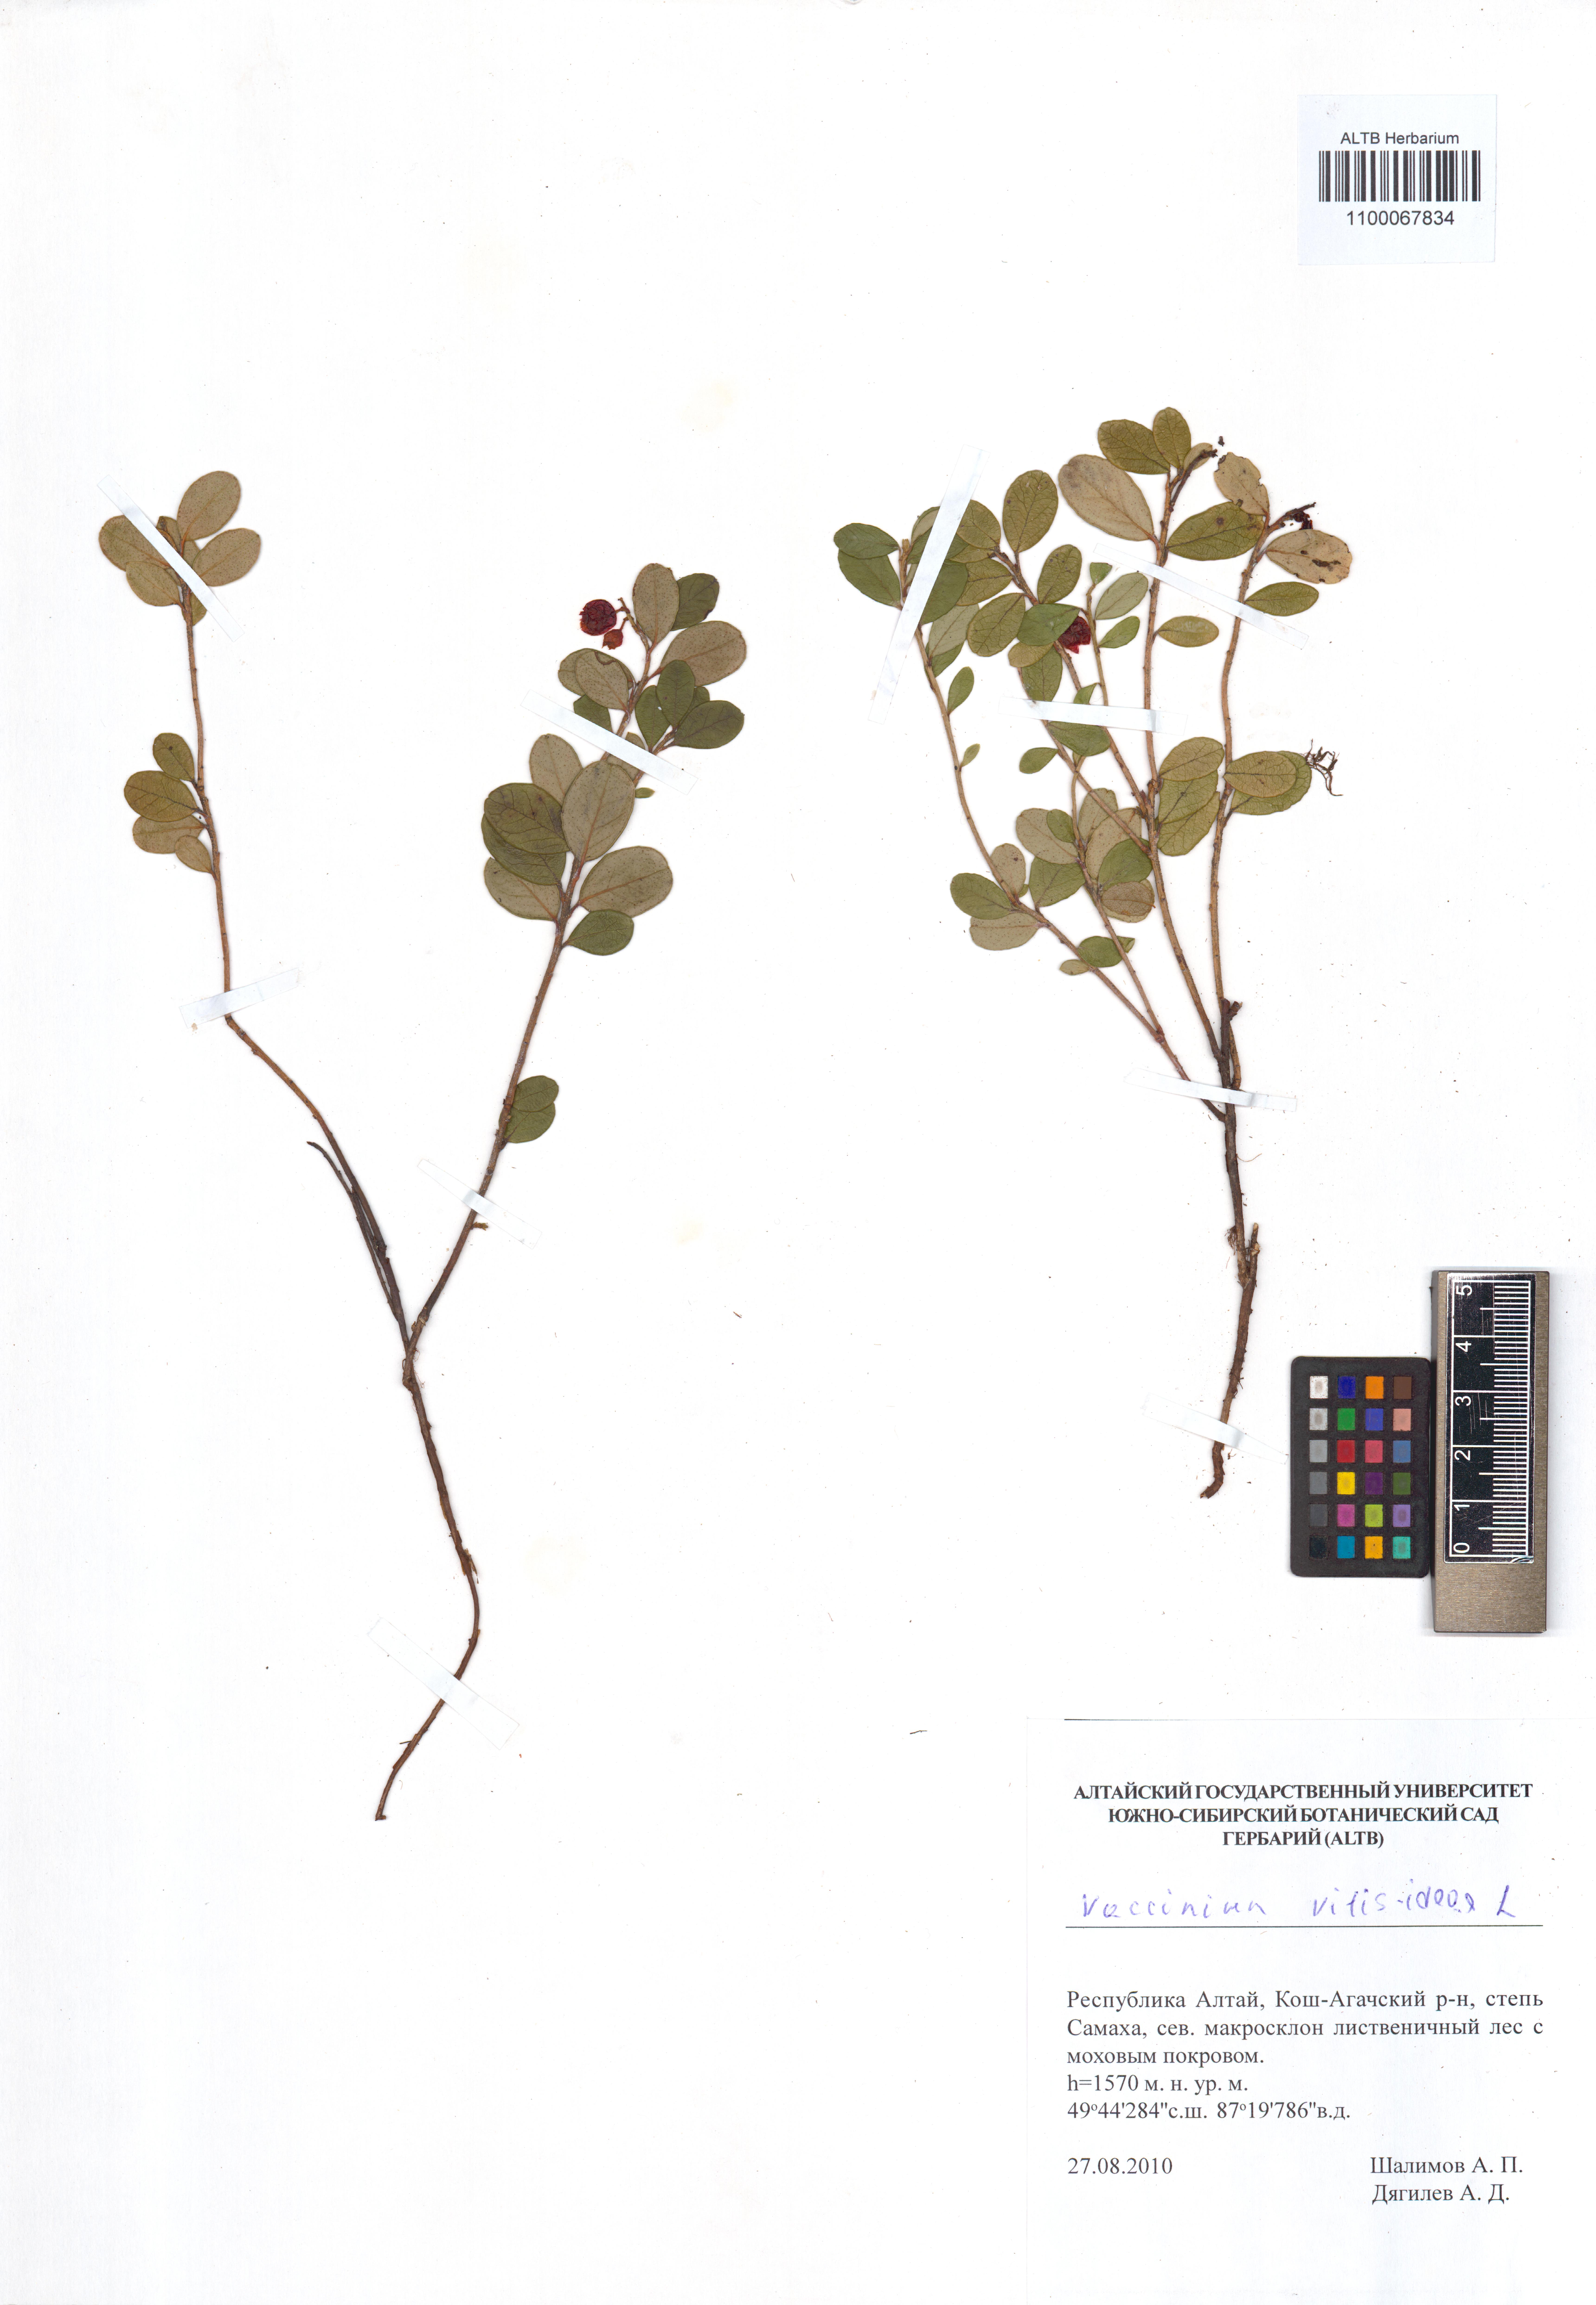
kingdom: Plantae
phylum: Tracheophyta
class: Magnoliopsida
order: Ericales
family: Ericaceae
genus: Vaccinium
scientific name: Vaccinium vitis-idaea
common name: Cowberry
